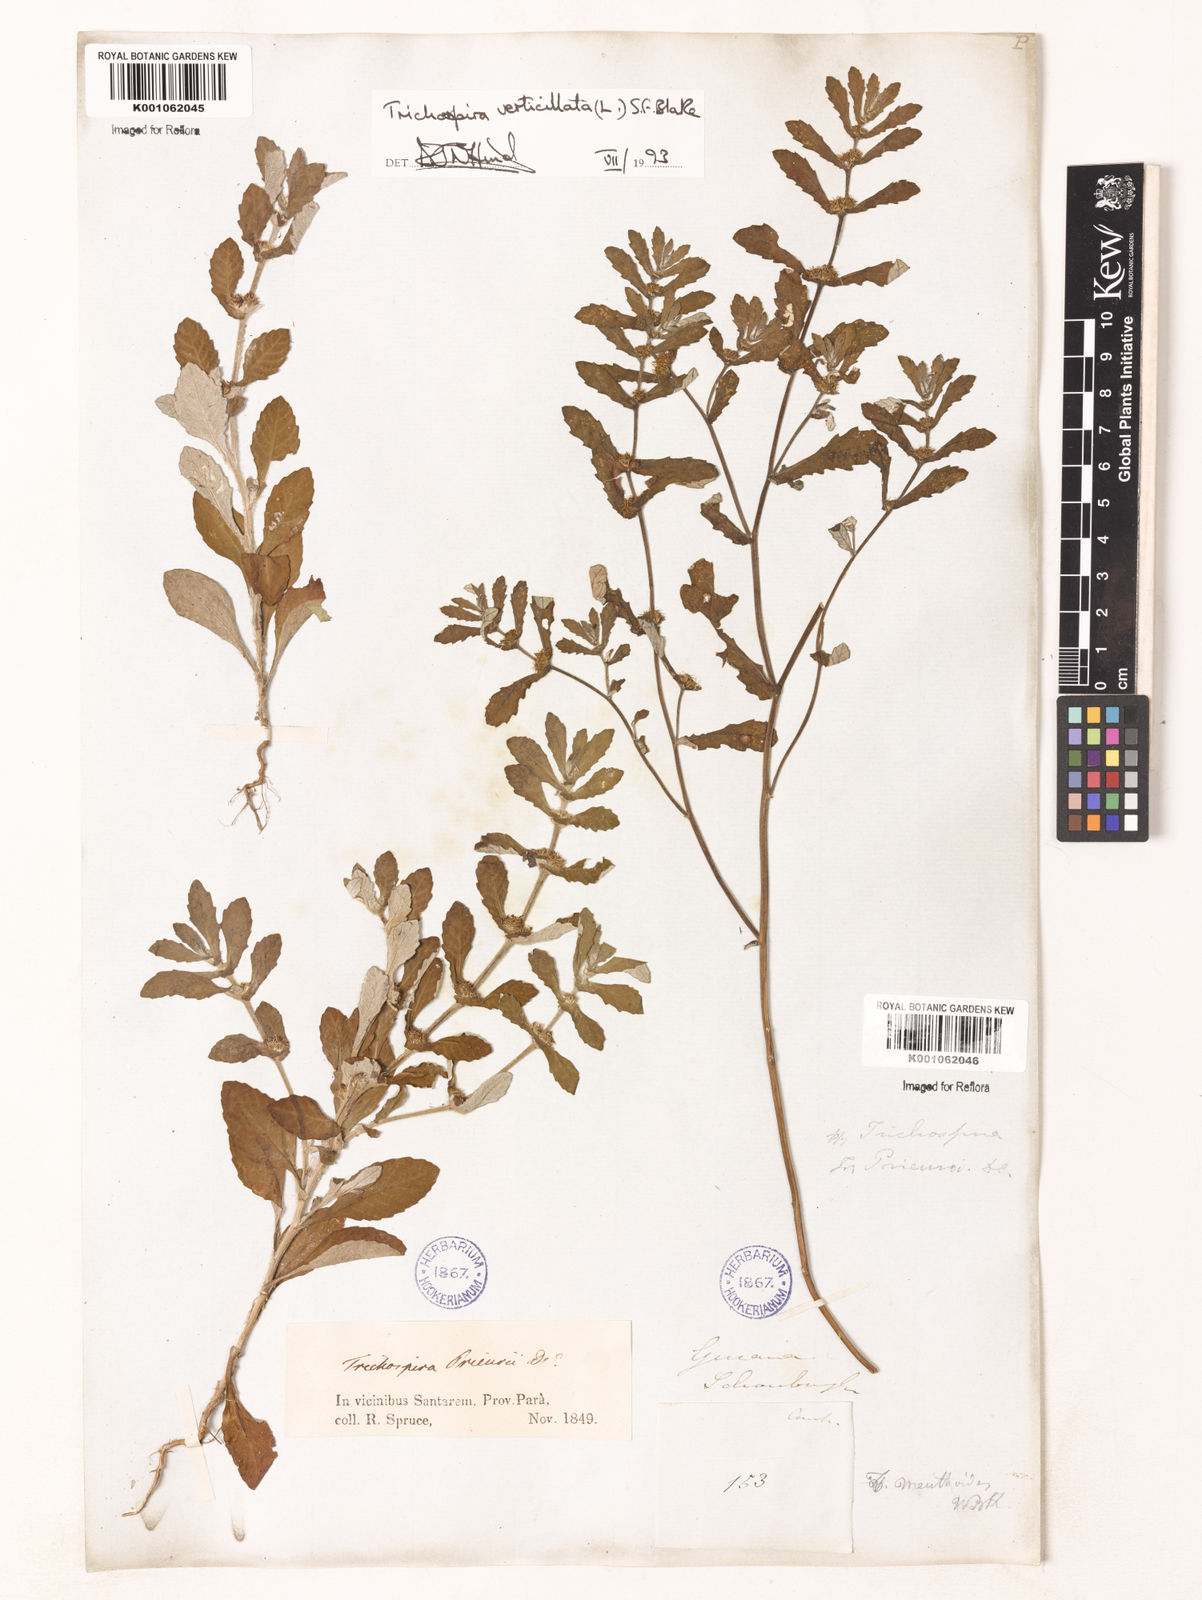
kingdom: Chromista
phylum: Ciliophora
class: Kinetofragminophora
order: Trichostomatida
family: Trichospiridae
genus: Trichospira
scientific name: Trichospira verticillata
